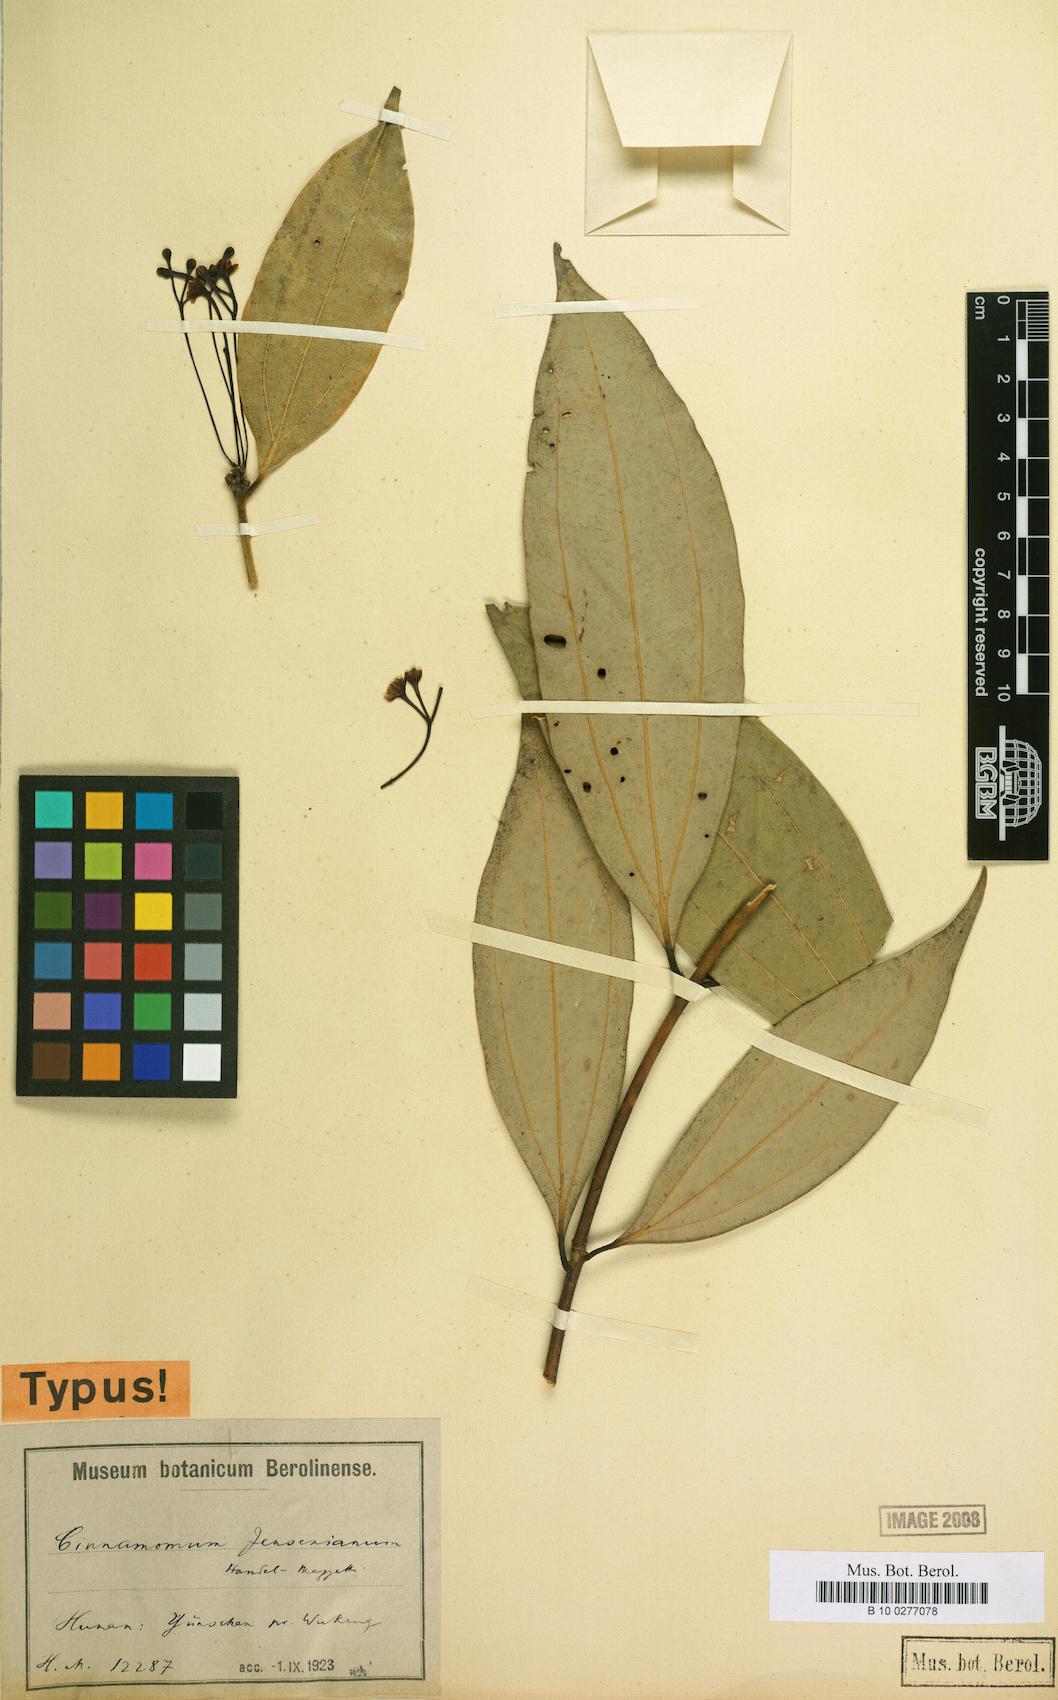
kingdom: Plantae
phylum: Tracheophyta
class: Magnoliopsida
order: Laurales
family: Lauraceae
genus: Cinnamomum
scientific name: Cinnamomum mairei
